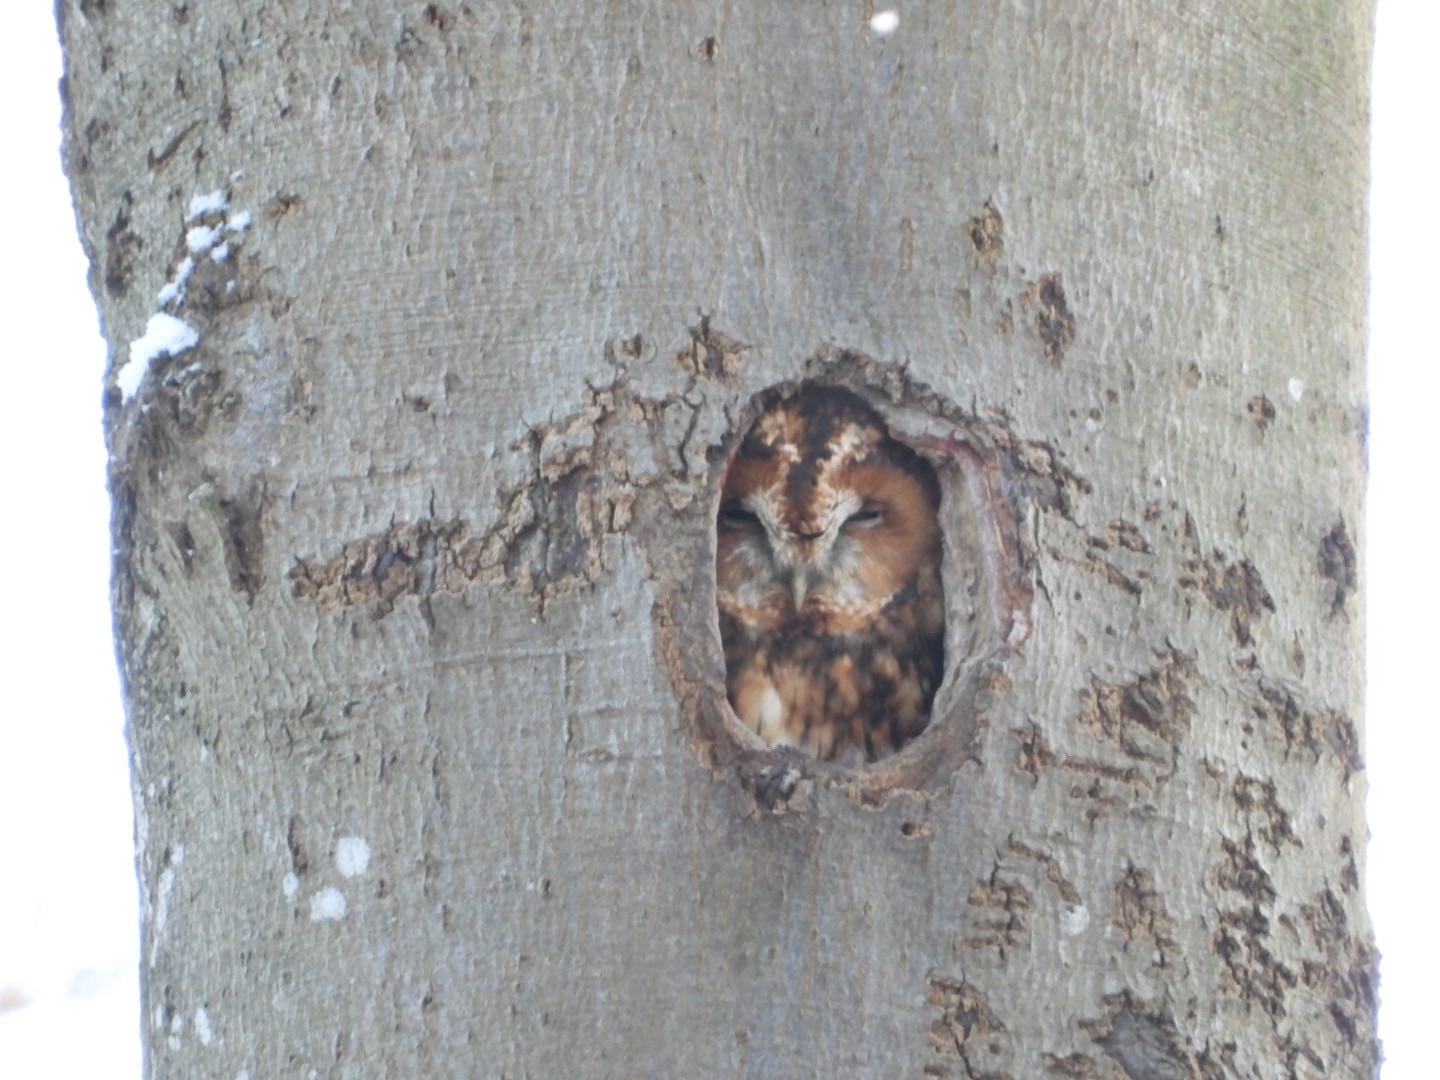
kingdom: Animalia
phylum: Chordata
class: Aves
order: Strigiformes
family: Strigidae
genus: Strix
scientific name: Strix aluco
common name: Natugle
